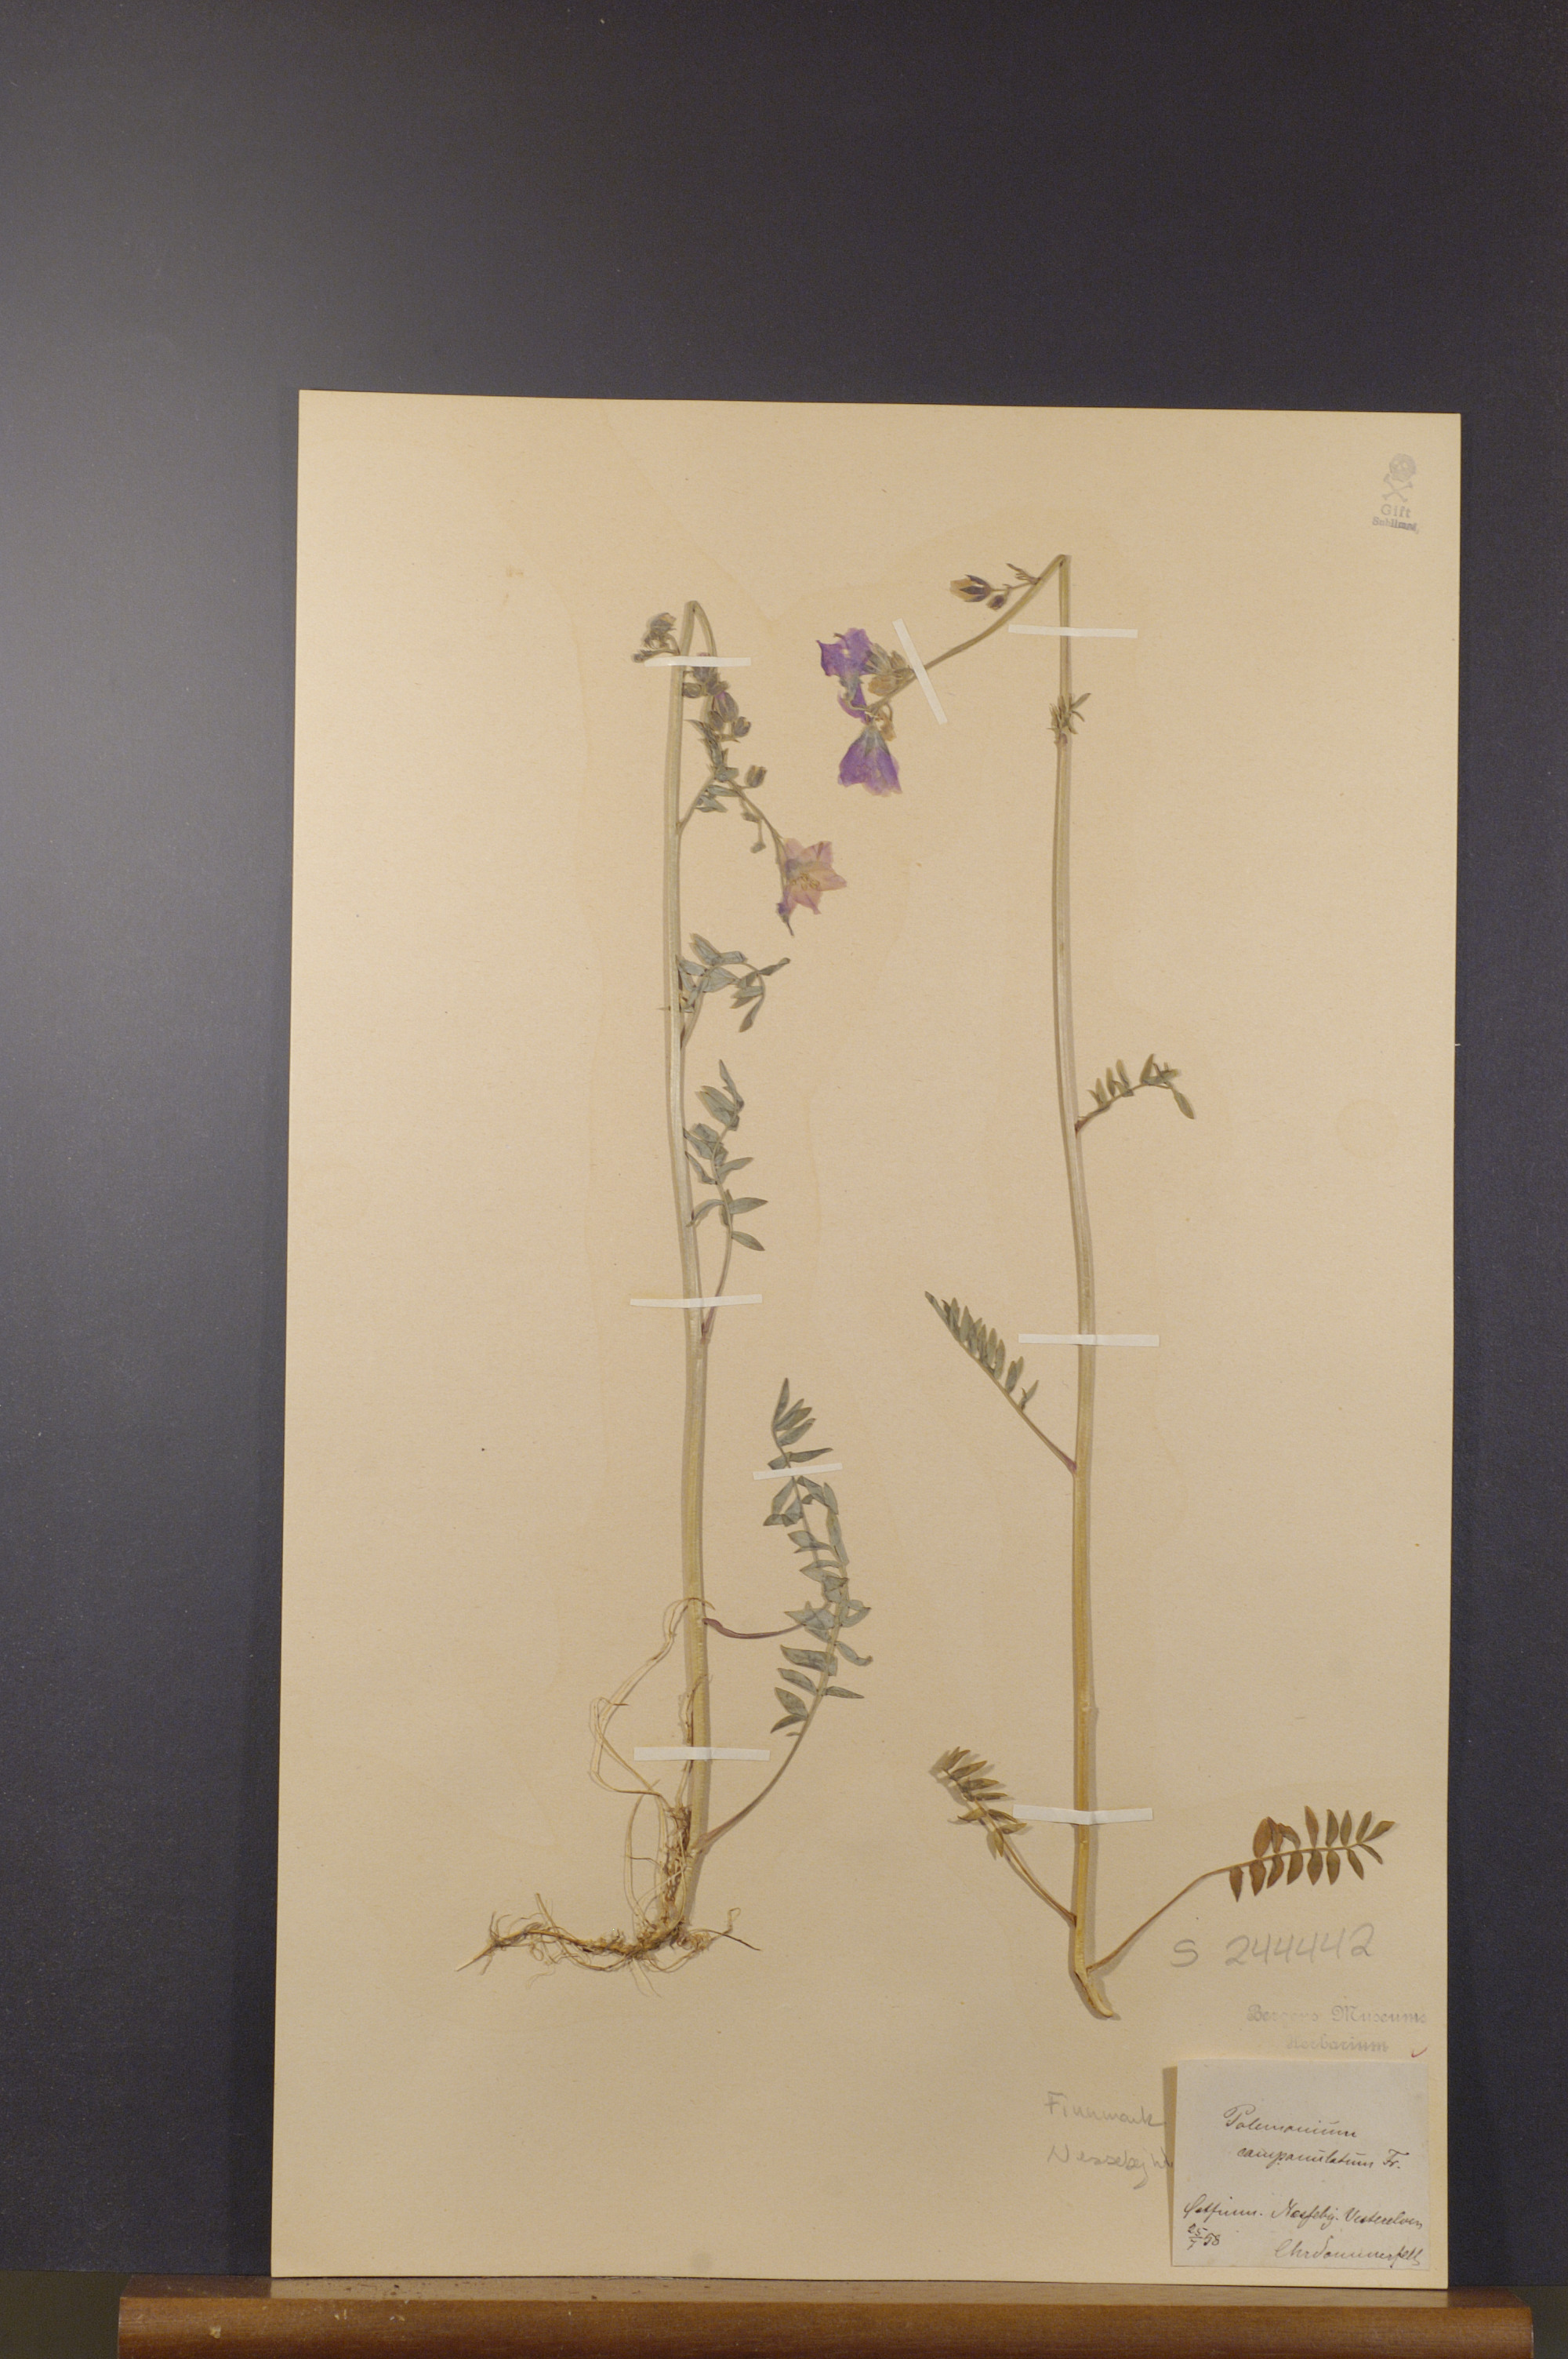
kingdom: Plantae
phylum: Tracheophyta
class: Magnoliopsida
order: Ericales
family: Polemoniaceae
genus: Polemonium
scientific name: Polemonium villosum
